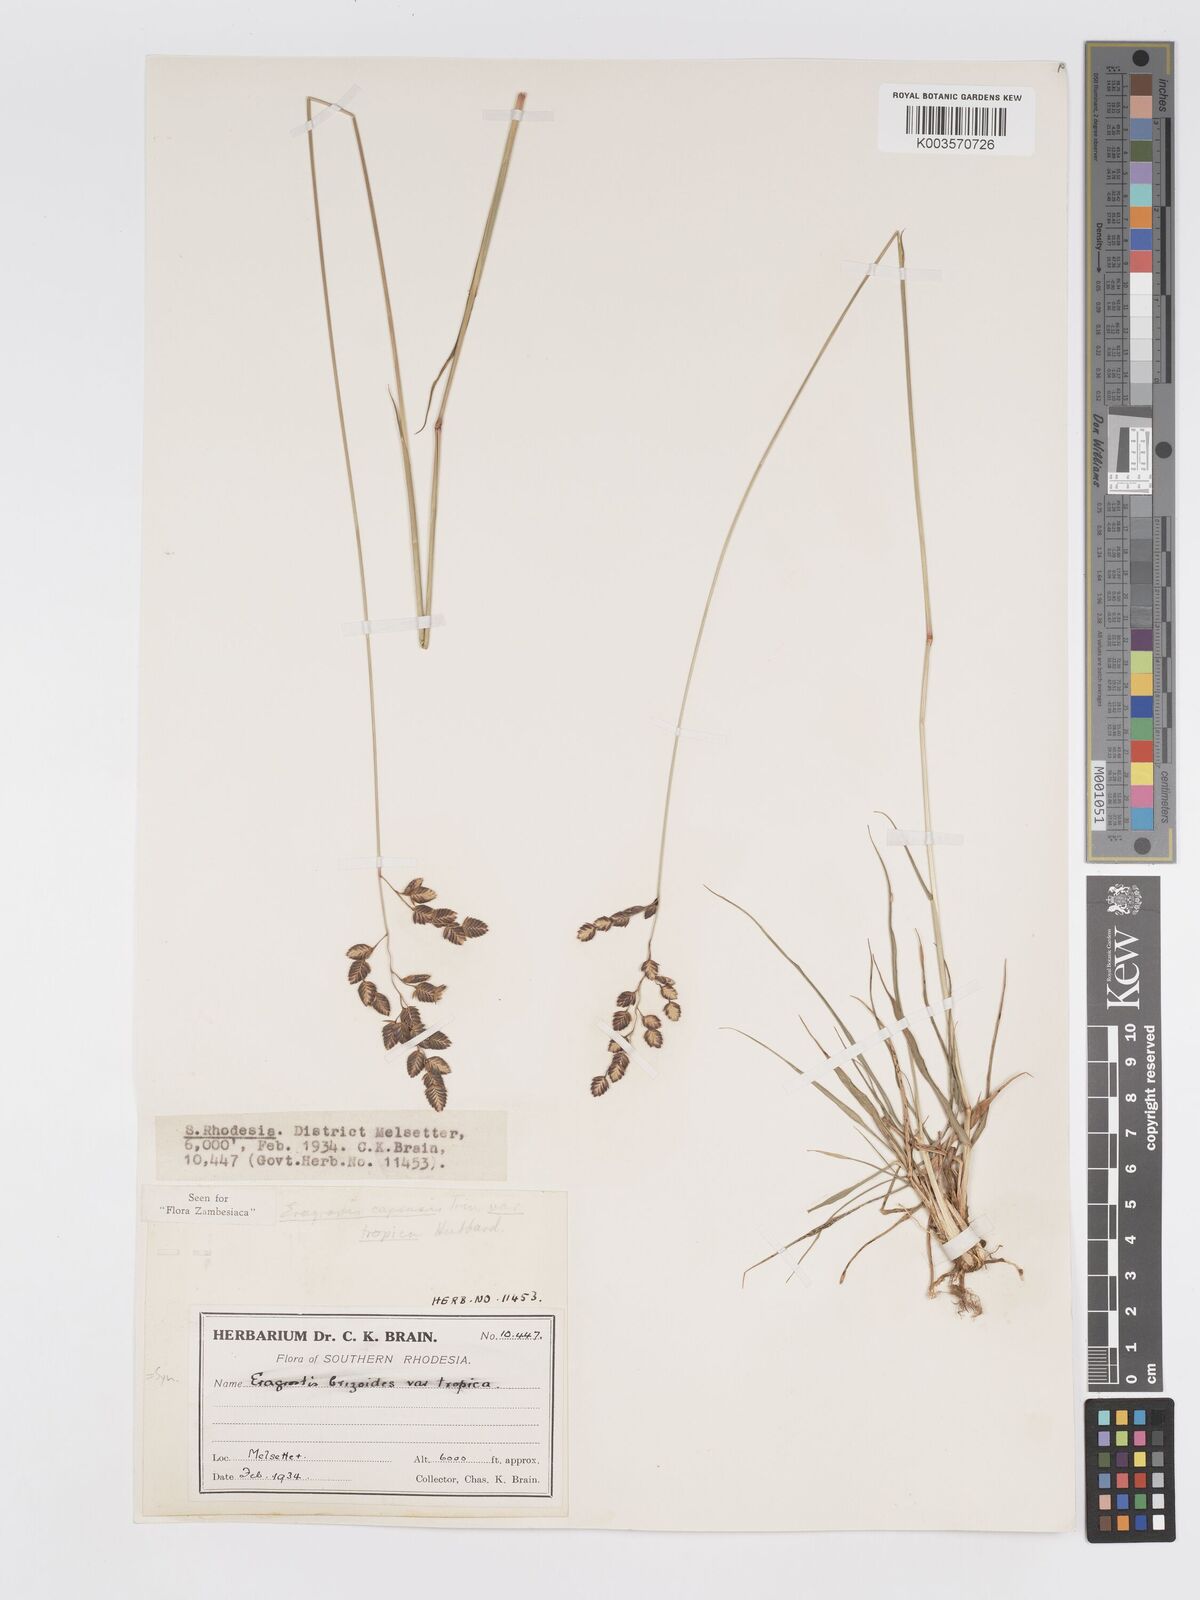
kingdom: Plantae
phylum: Tracheophyta
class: Liliopsida
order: Poales
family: Poaceae
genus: Eragrostis
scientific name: Eragrostis capensis
